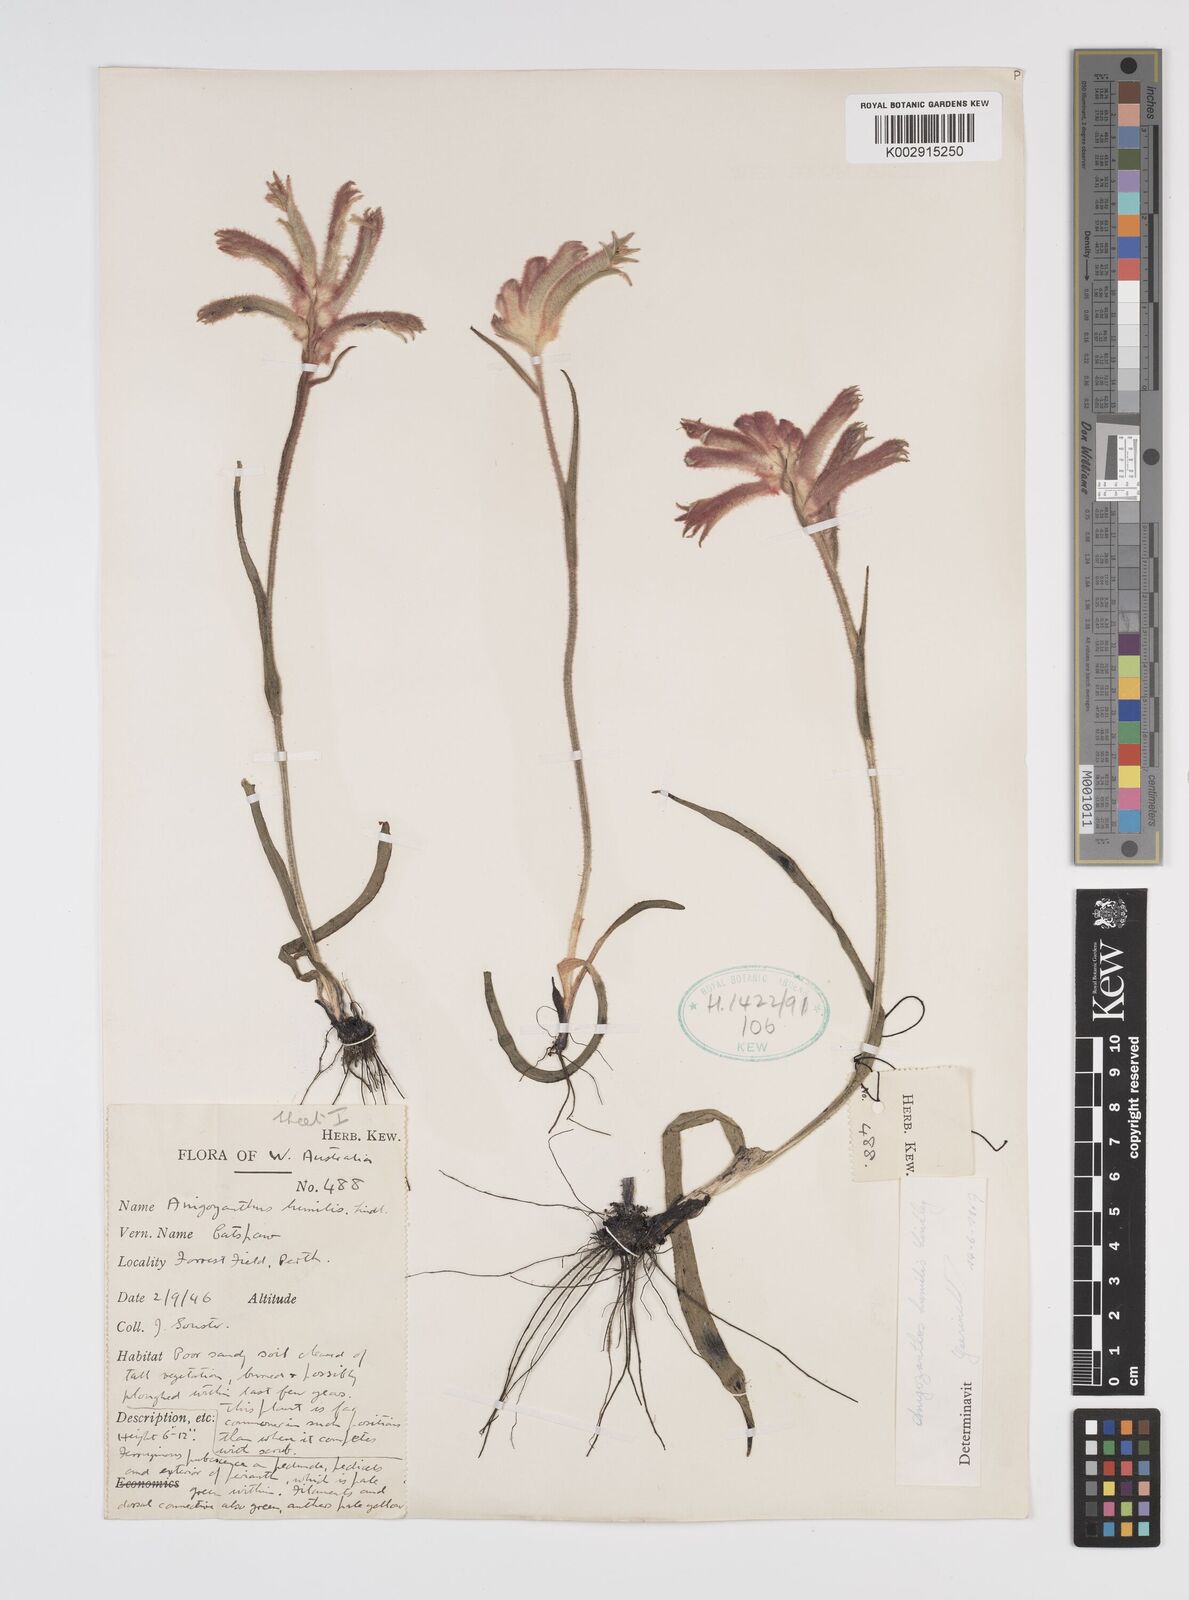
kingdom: Plantae
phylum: Tracheophyta
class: Liliopsida
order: Commelinales
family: Haemodoraceae
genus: Anigozanthos
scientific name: Anigozanthos humilis
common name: Cat's-paw
